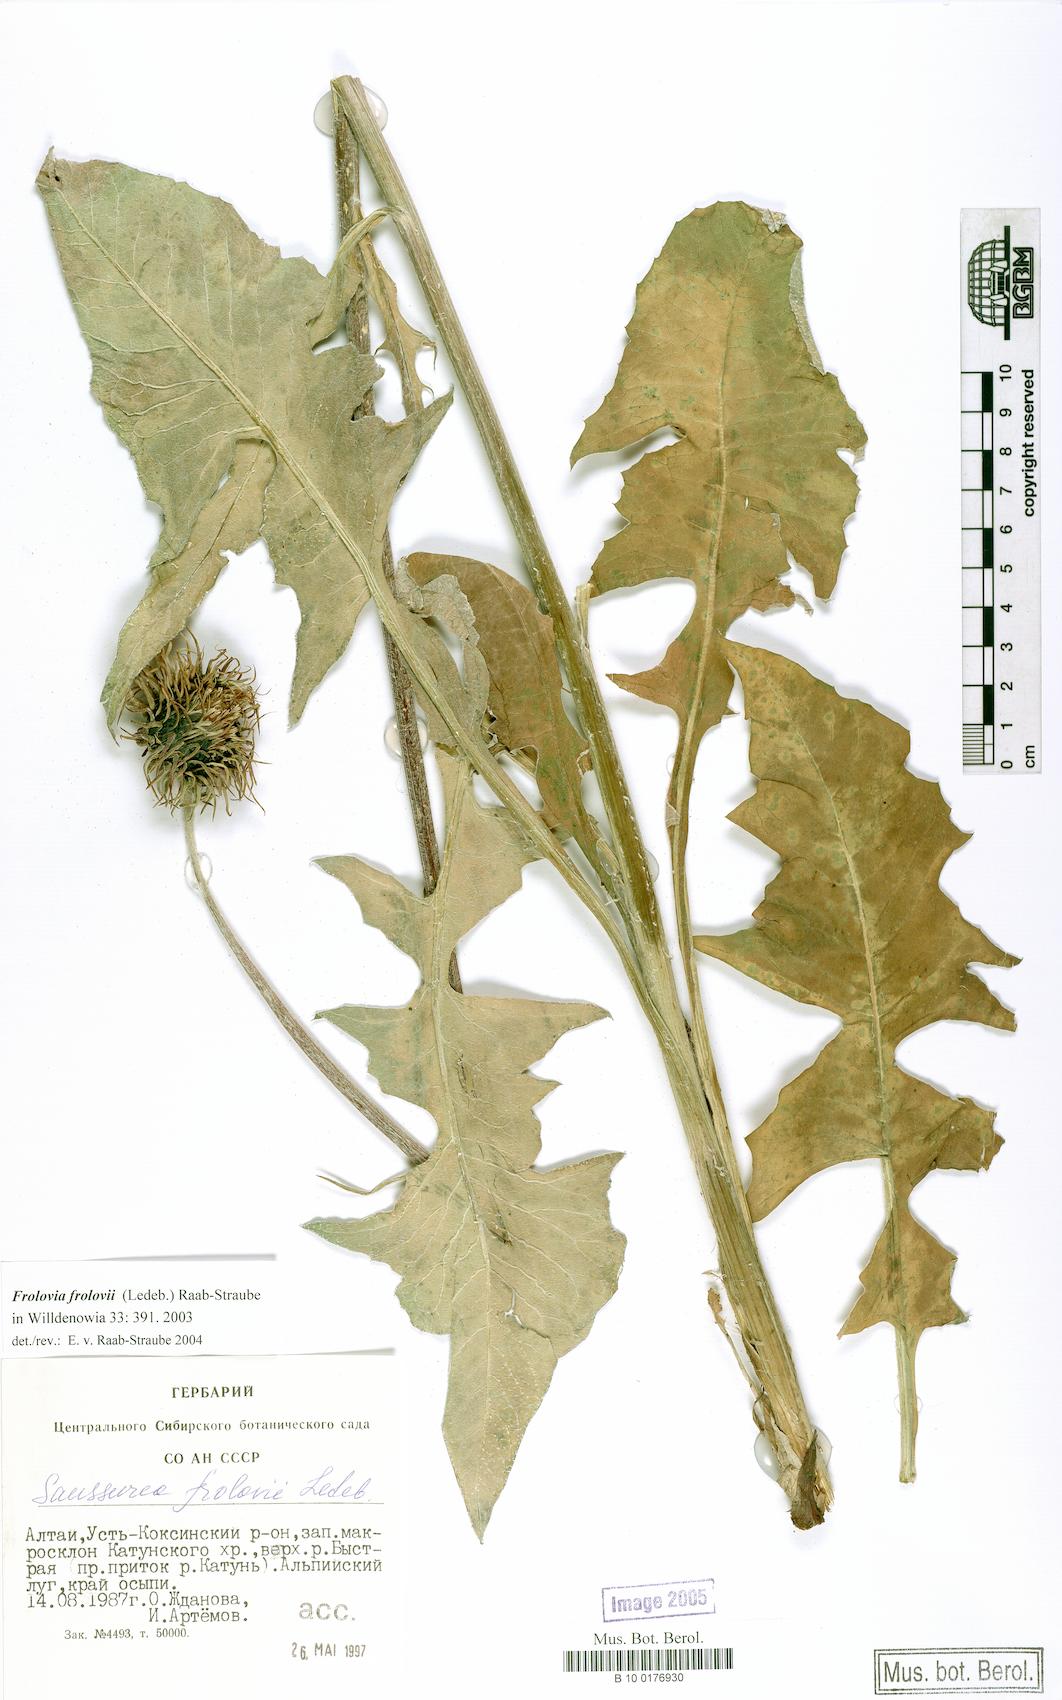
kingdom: Plantae
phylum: Tracheophyta
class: Magnoliopsida
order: Asterales
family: Asteraceae
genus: Dolomiaea
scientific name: Dolomiaea Frolovia frolovii
